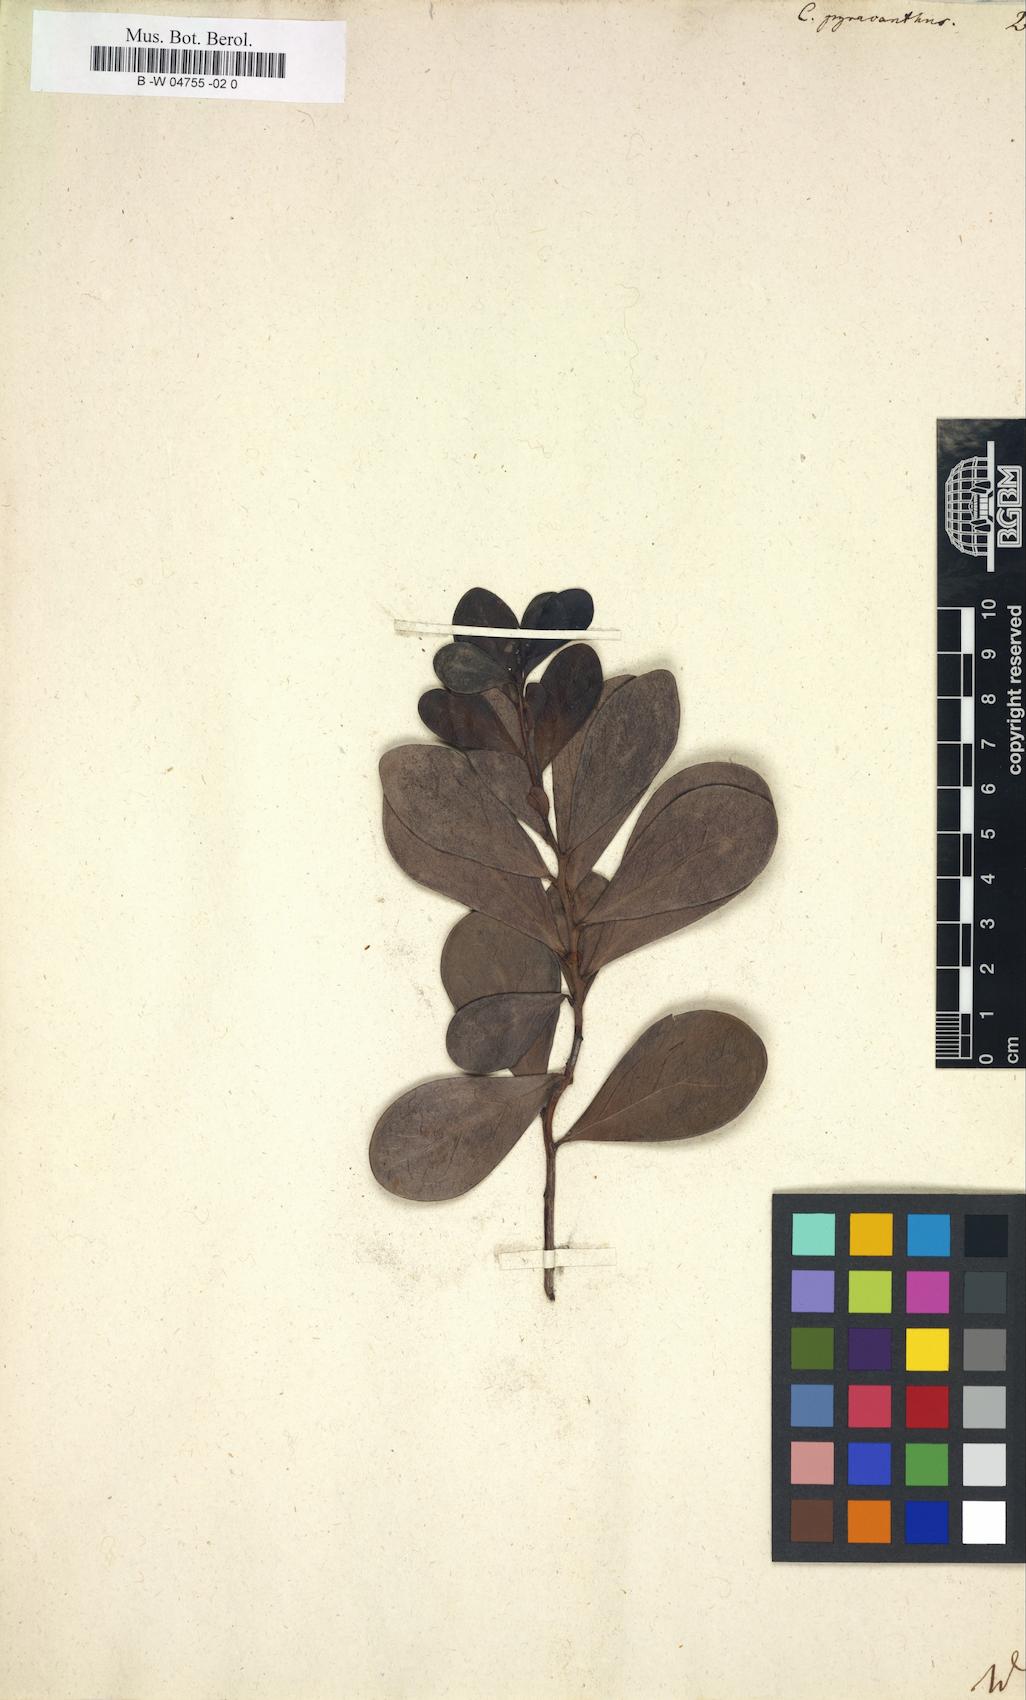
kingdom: Plantae
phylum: Tracheophyta
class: Magnoliopsida
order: Celastrales
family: Celastraceae
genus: Putterlickia
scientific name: Putterlickia pyracantha
